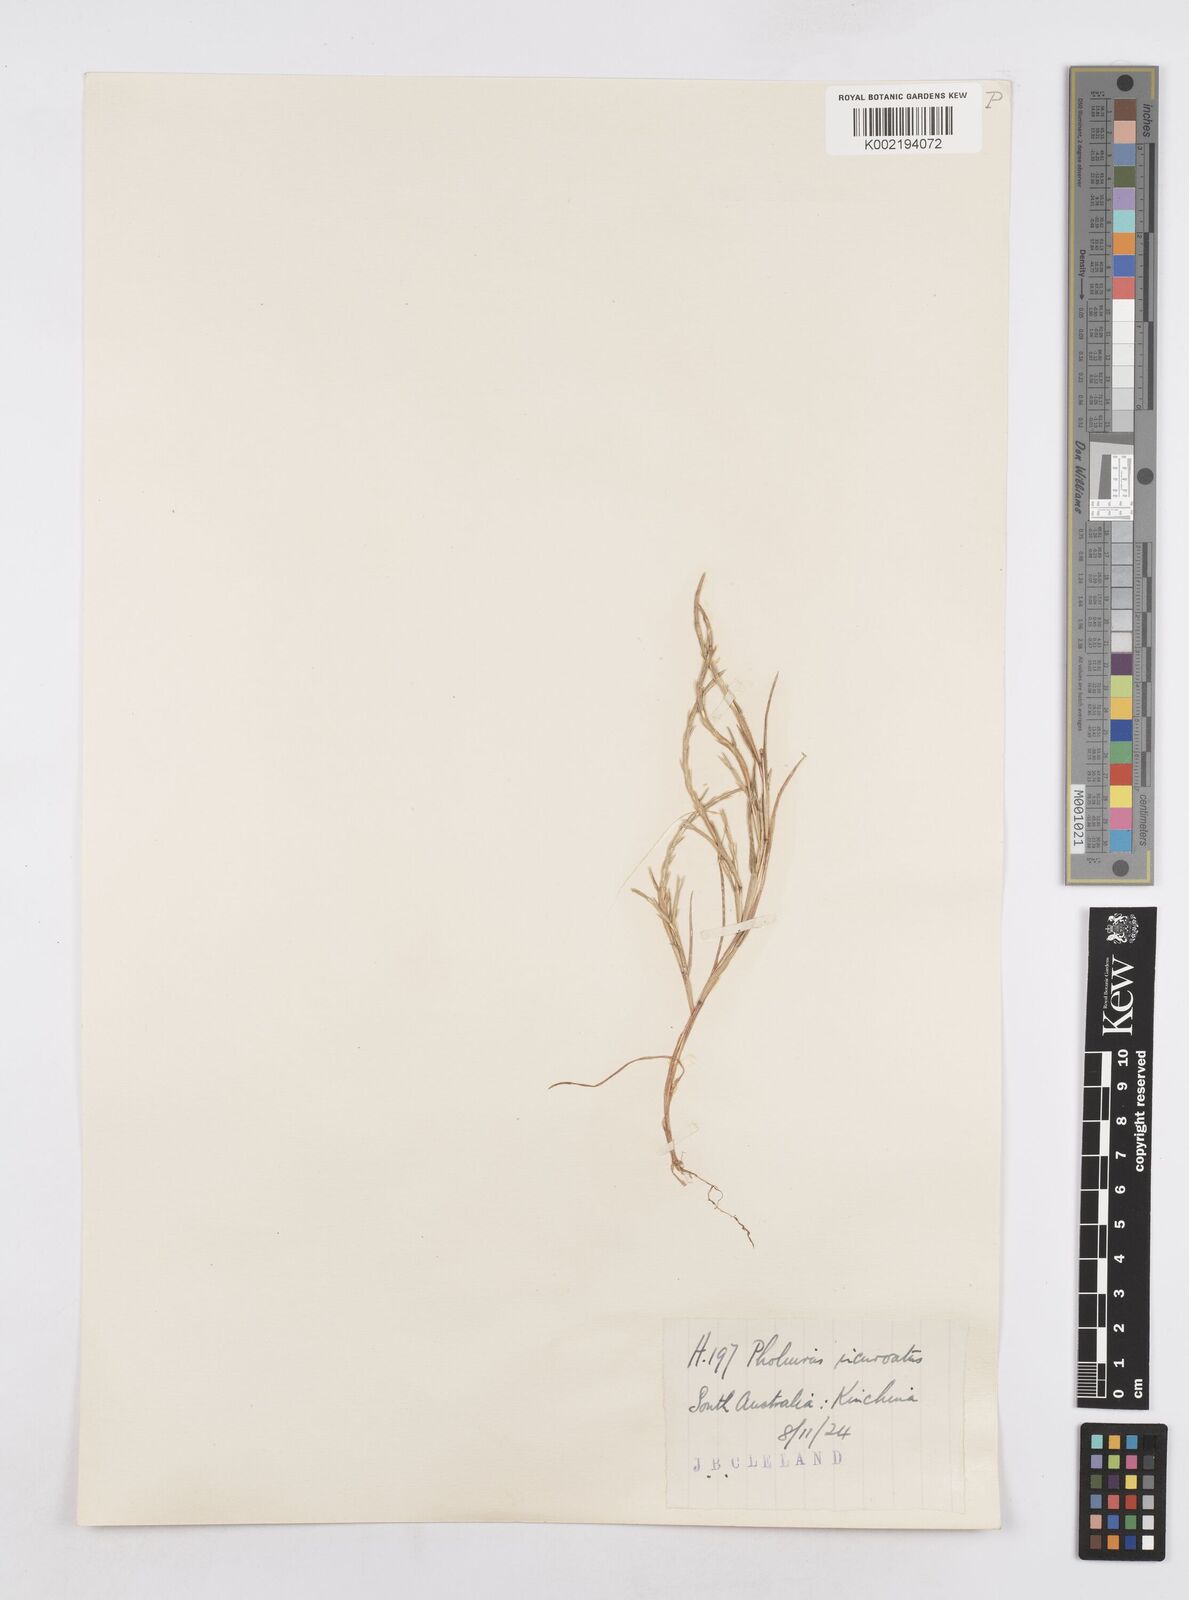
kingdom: Plantae
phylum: Tracheophyta
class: Liliopsida
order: Poales
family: Poaceae
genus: Parapholis
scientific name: Parapholis incurva
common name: Curved sicklegrass
